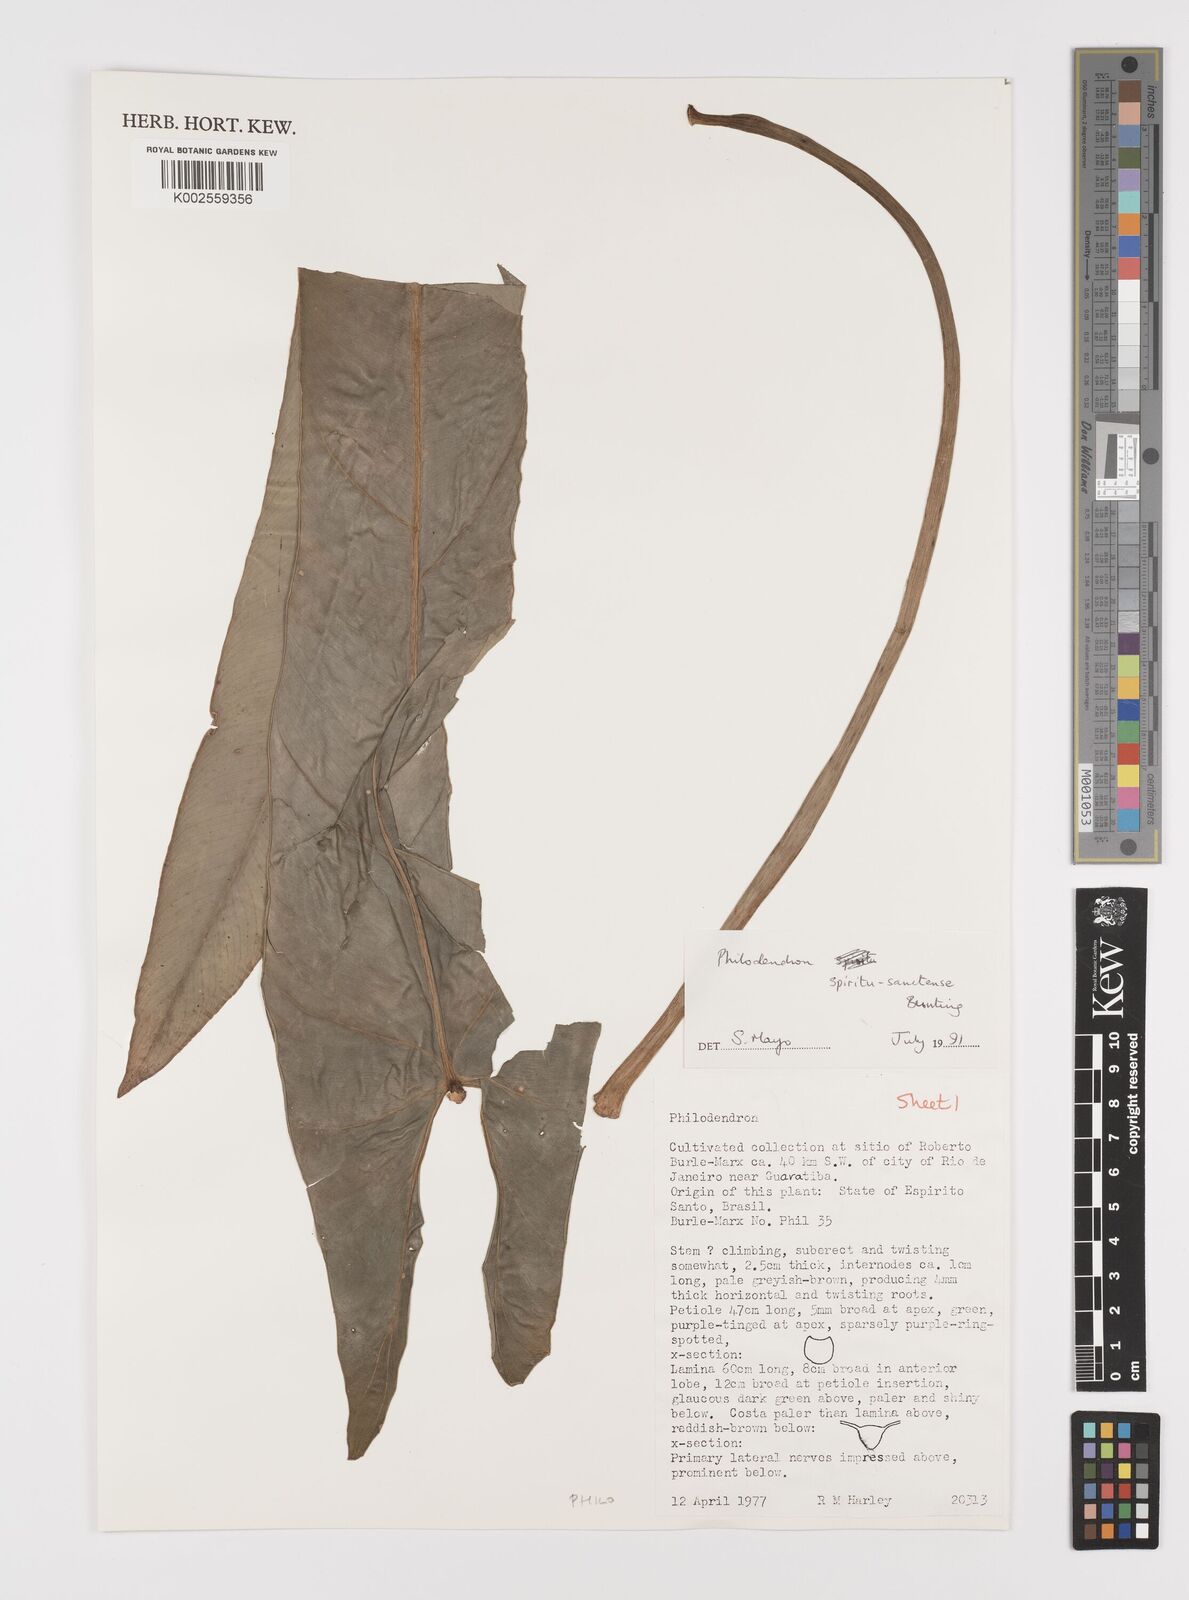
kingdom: Plantae
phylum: Tracheophyta
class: Liliopsida
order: Alismatales
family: Araceae
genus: Philodendron
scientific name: Philodendron spiritus-sancti
